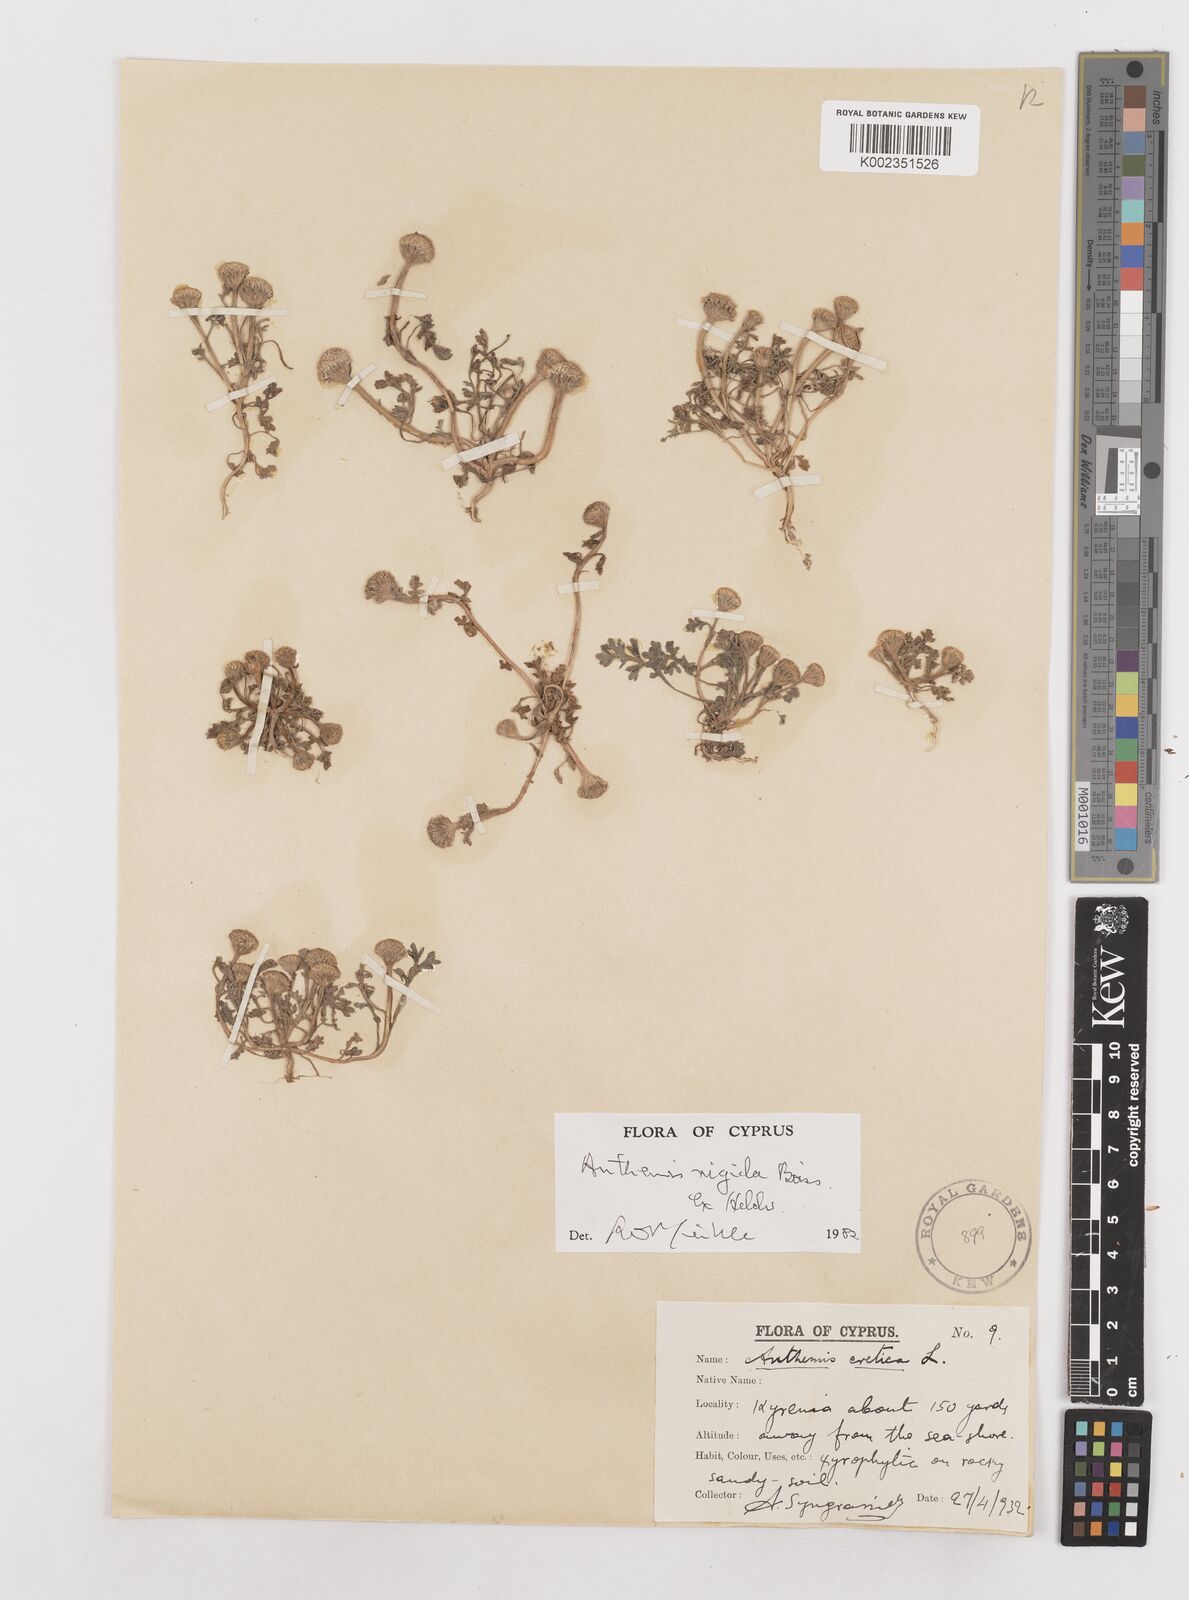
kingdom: Plantae
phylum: Tracheophyta
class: Magnoliopsida
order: Asterales
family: Asteraceae
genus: Anthemis
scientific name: Anthemis rigida
